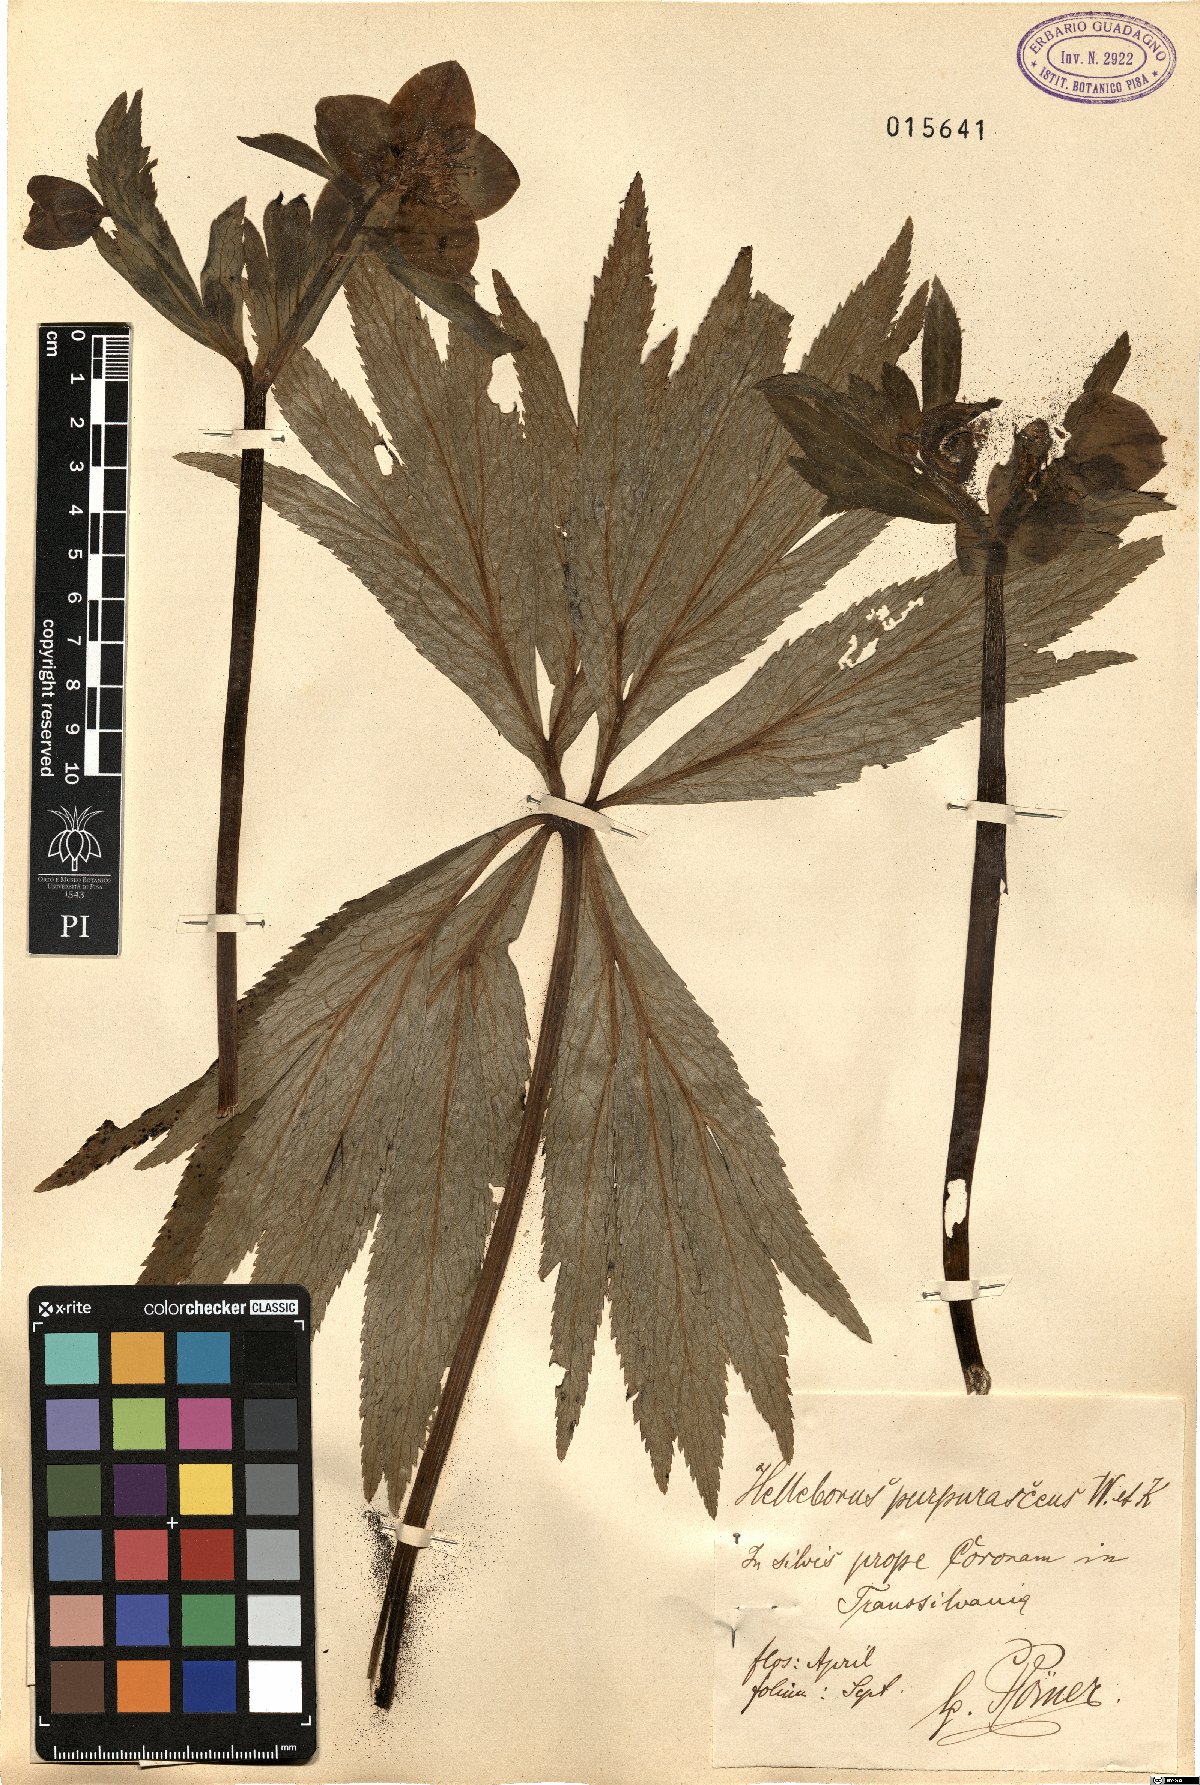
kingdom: Plantae
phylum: Tracheophyta
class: Magnoliopsida
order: Ranunculales
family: Ranunculaceae
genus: Helleborus
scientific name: Helleborus purpurascens
